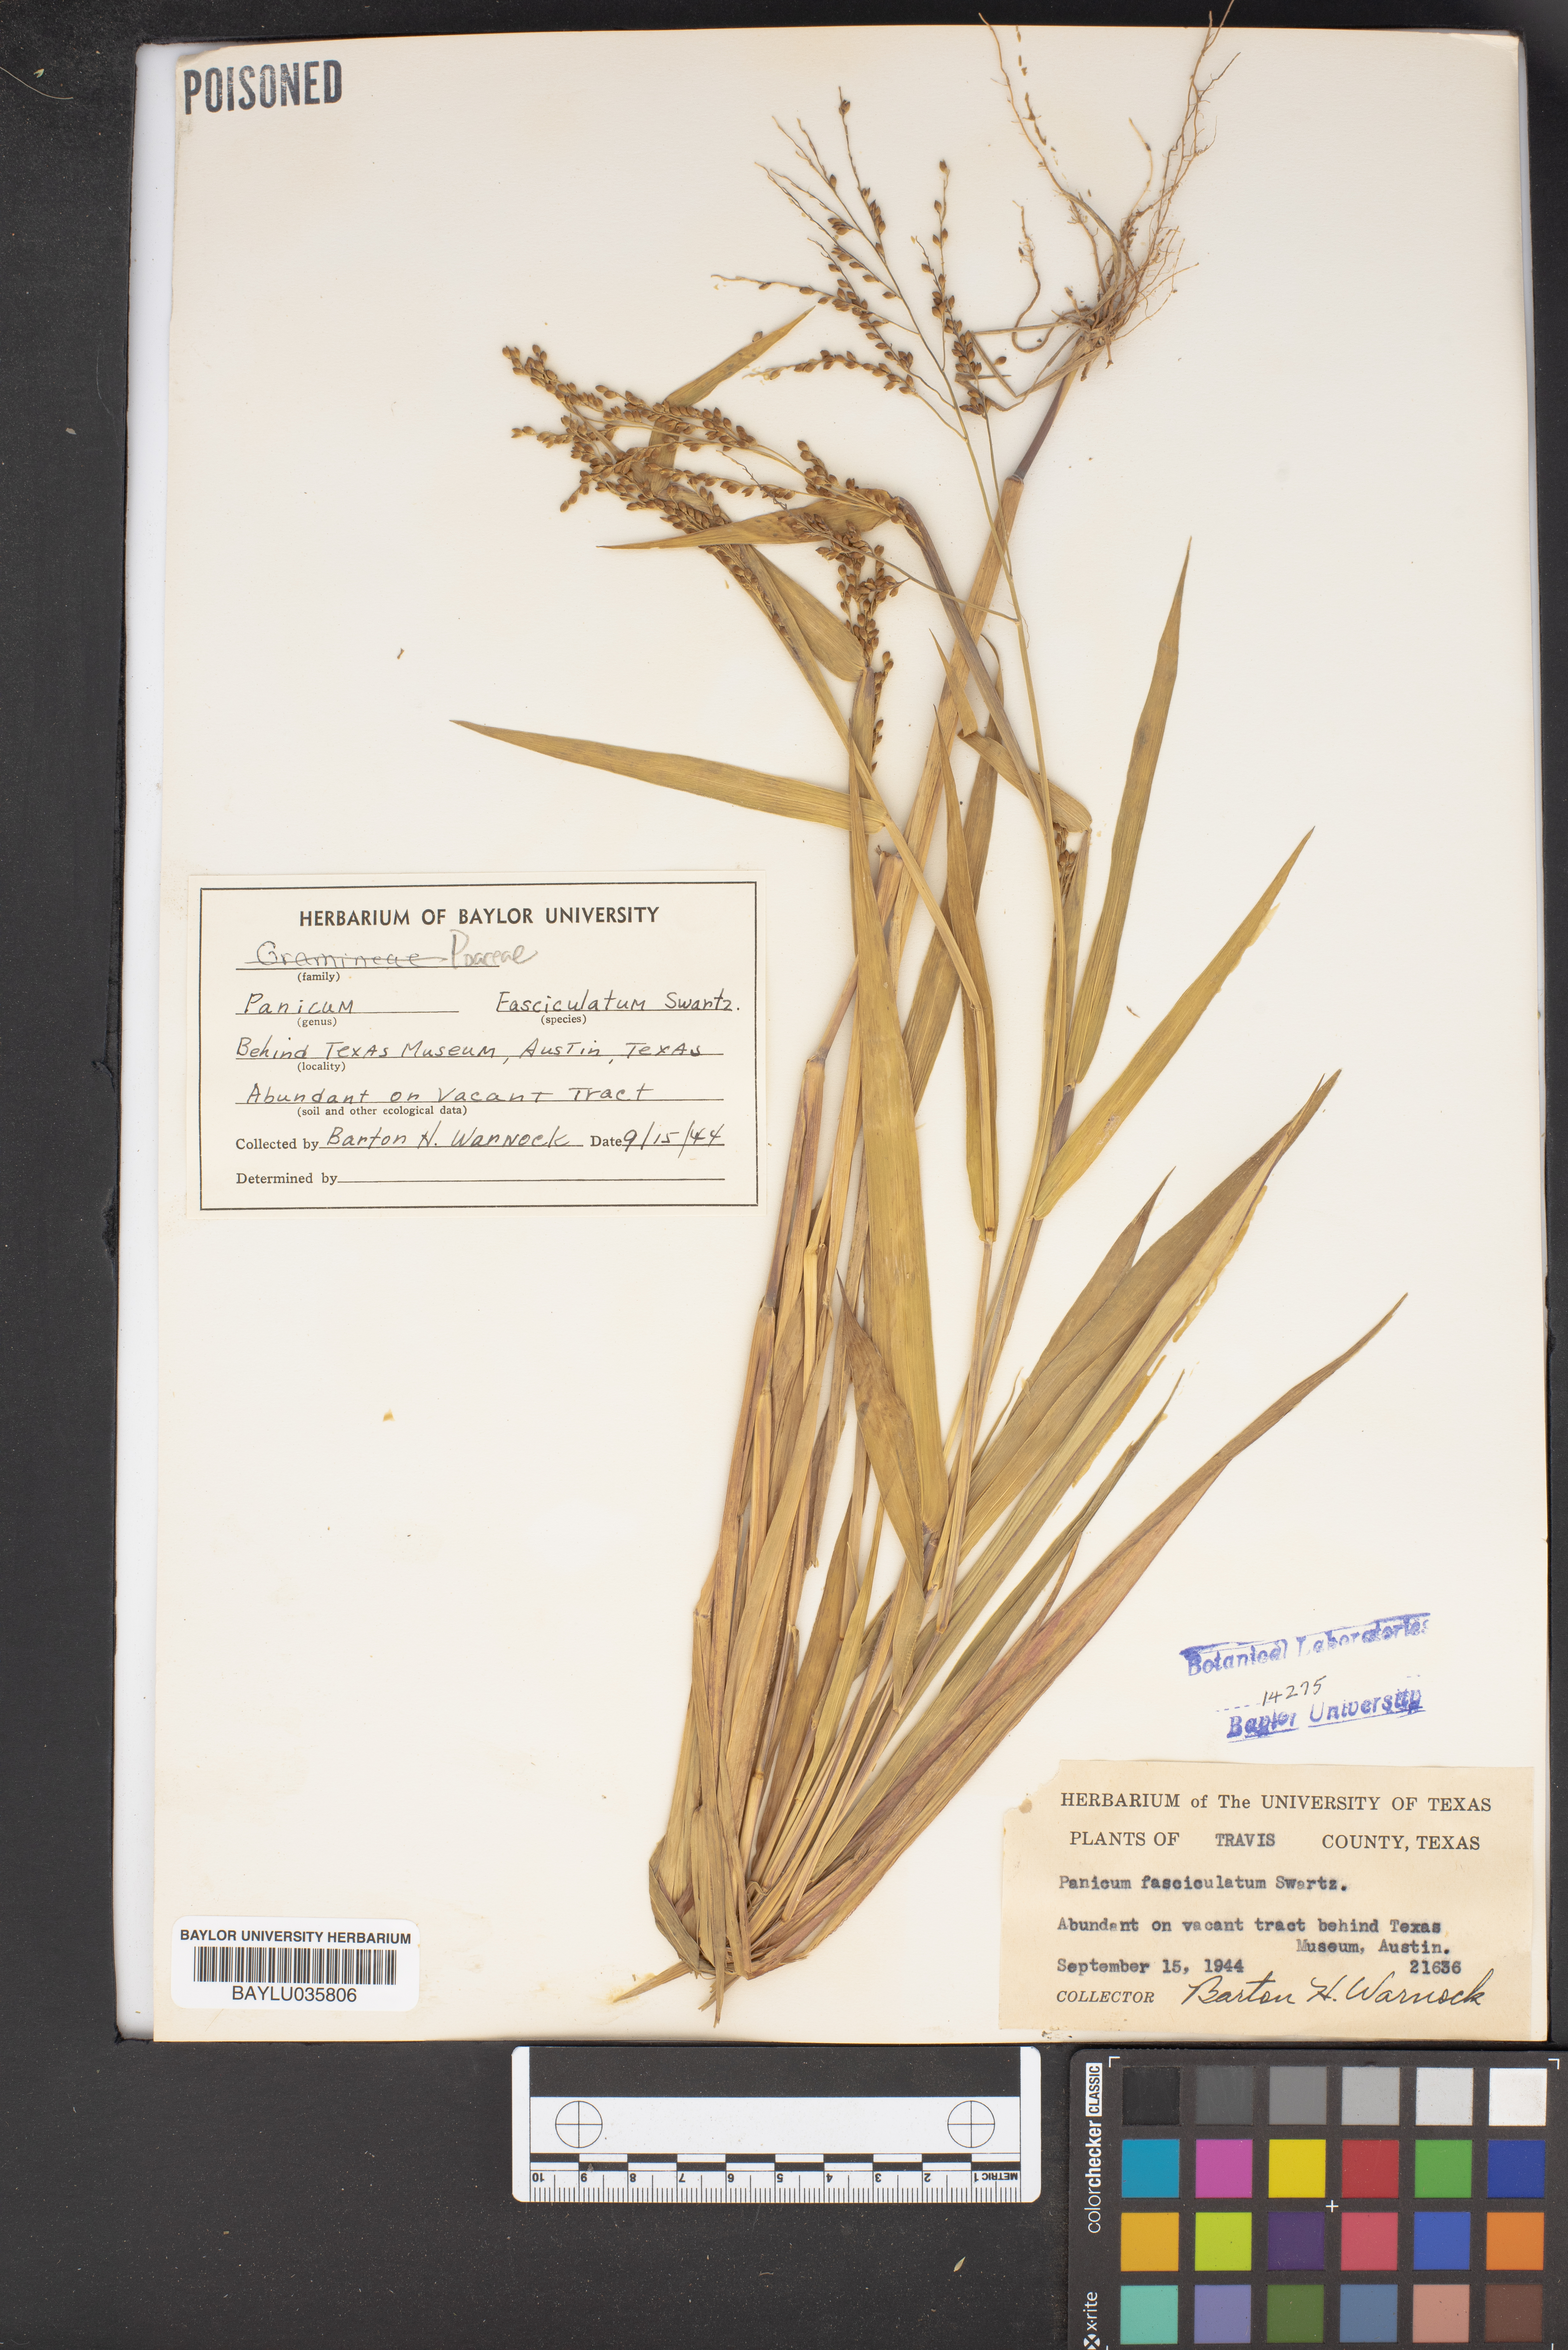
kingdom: Plantae
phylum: Tracheophyta
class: Liliopsida
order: Poales
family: Poaceae
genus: Urochloa
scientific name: Urochloa fusca
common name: Browntop signal grass
